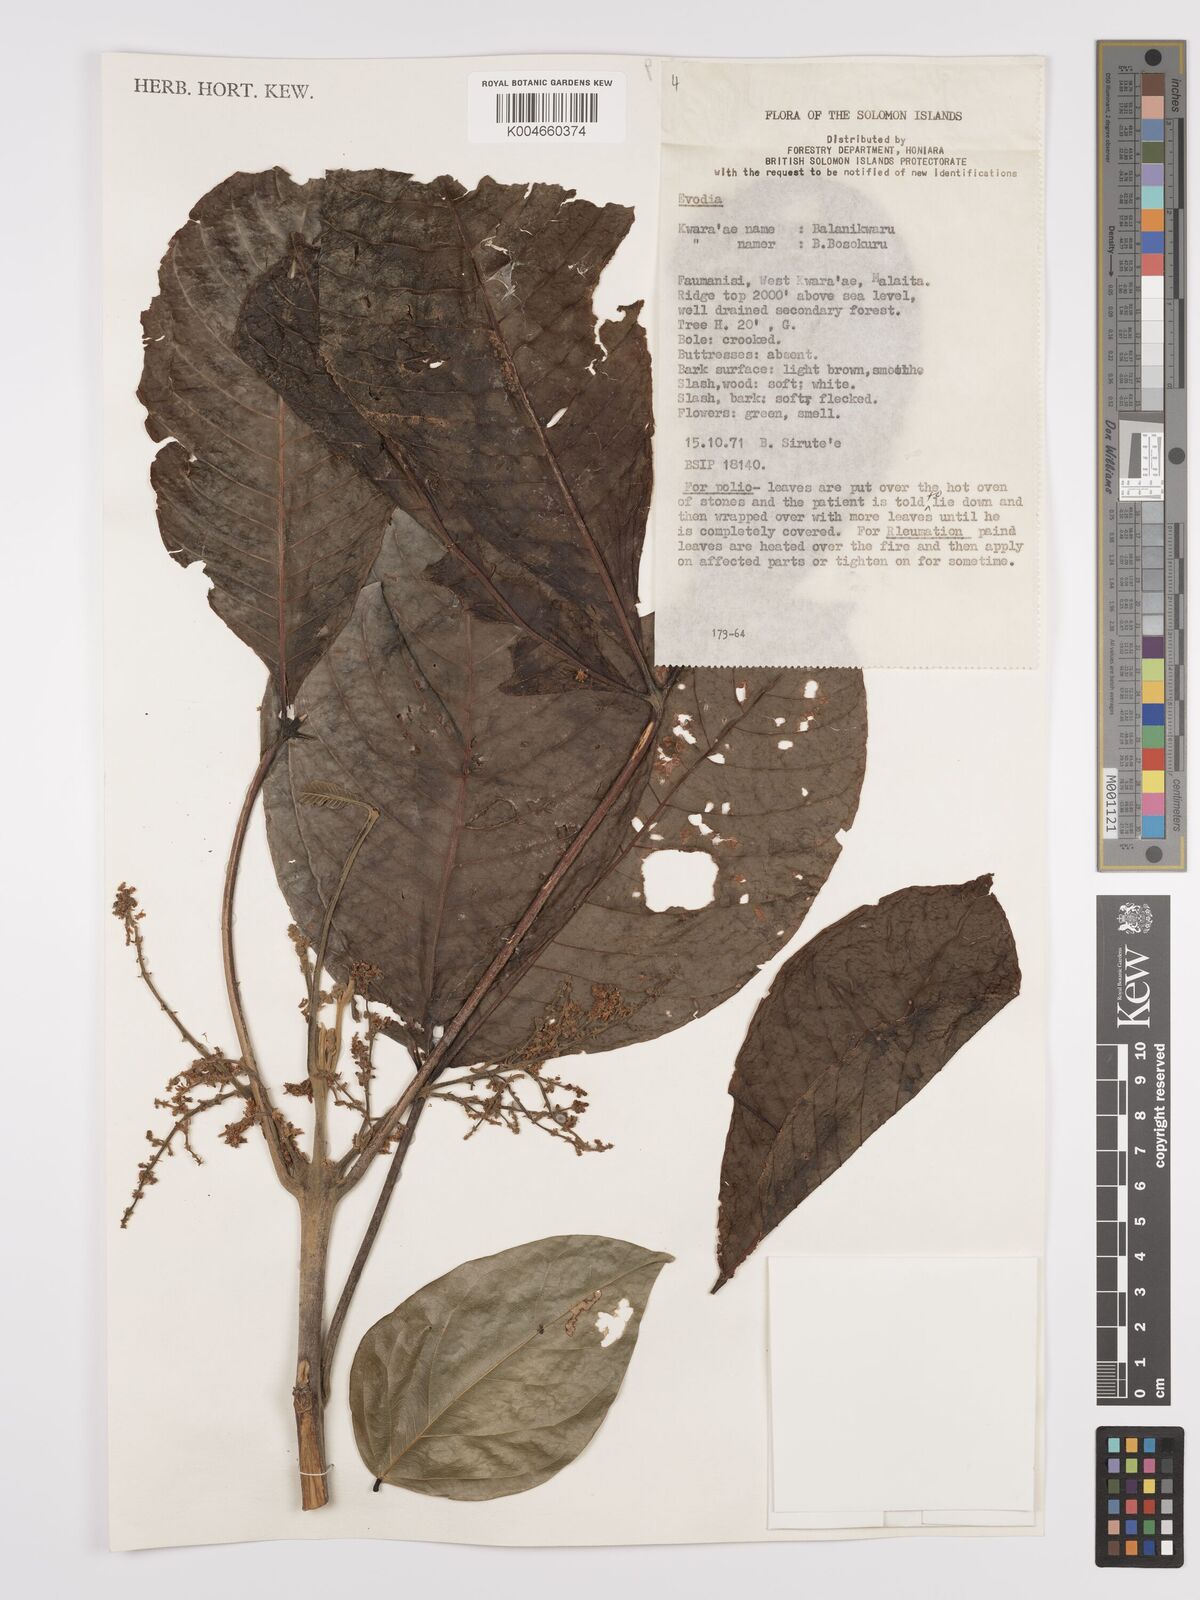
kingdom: Plantae
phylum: Tracheophyta
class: Magnoliopsida
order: Sapindales
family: Rutaceae
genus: Euodia
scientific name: Euodia
